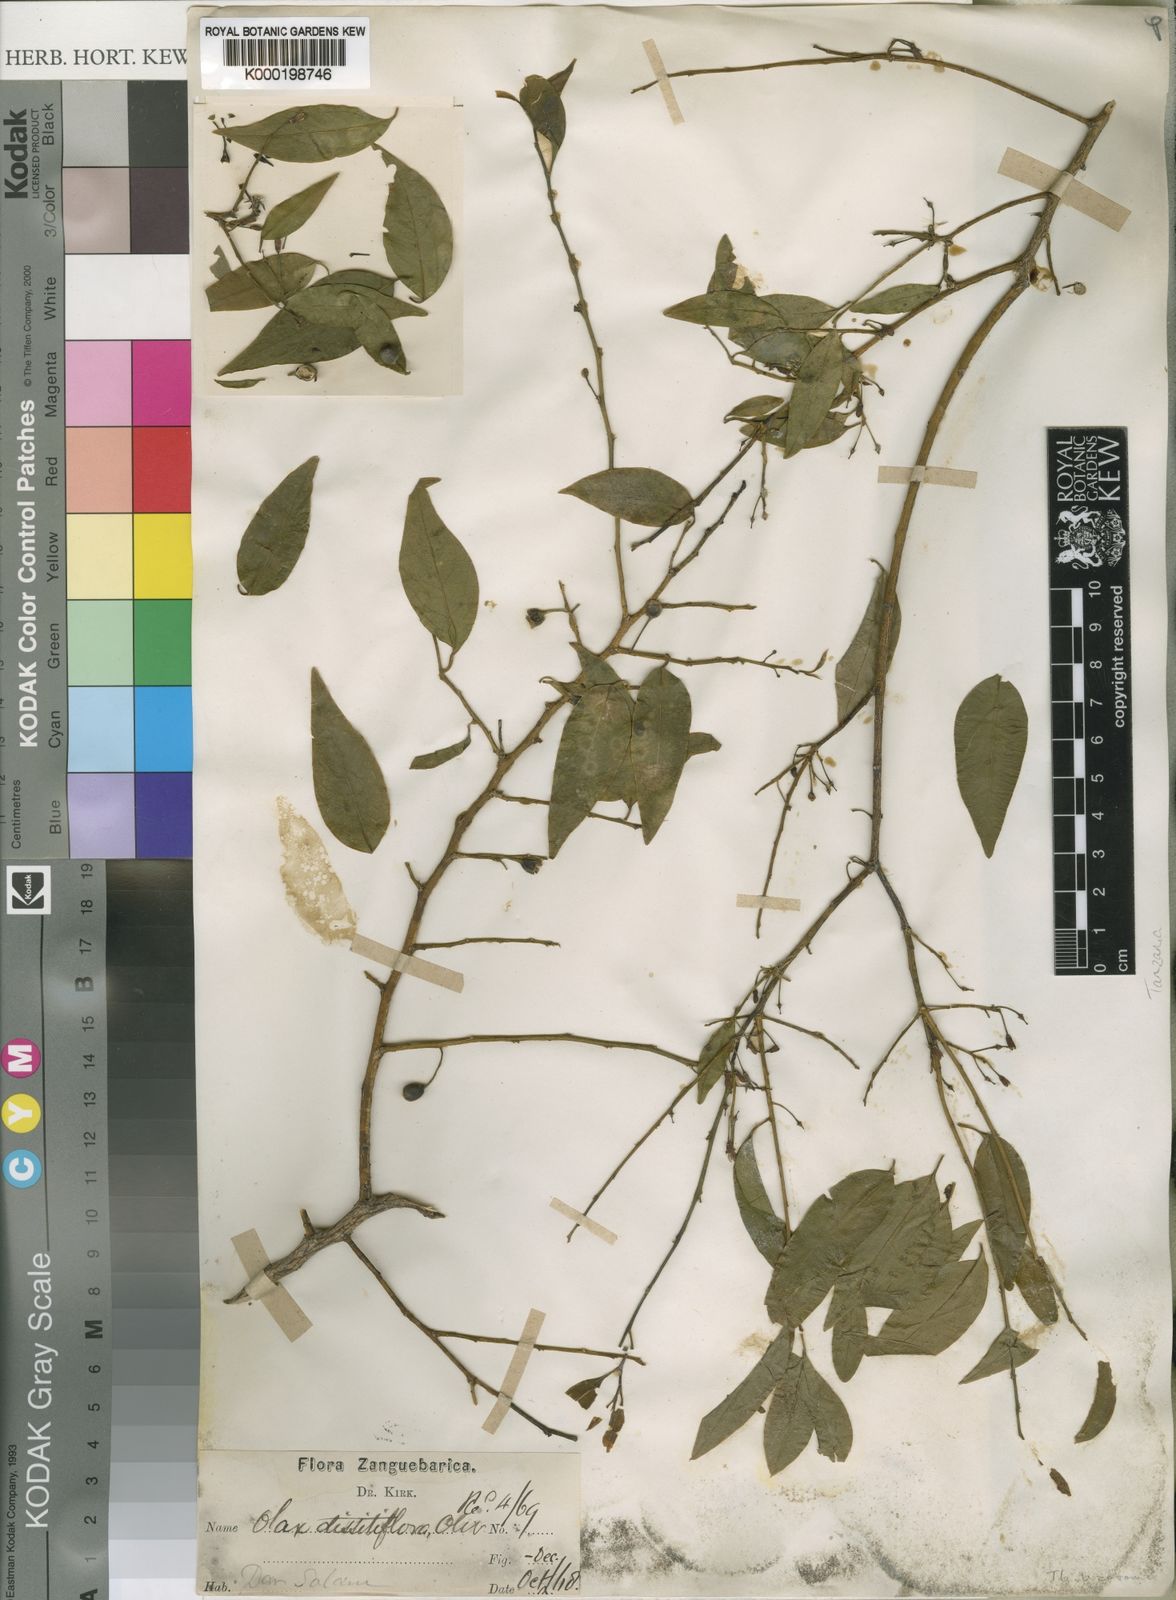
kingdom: Plantae
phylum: Tracheophyta
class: Magnoliopsida
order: Santalales
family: Olacaceae
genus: Olax
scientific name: Olax dissitiflora
